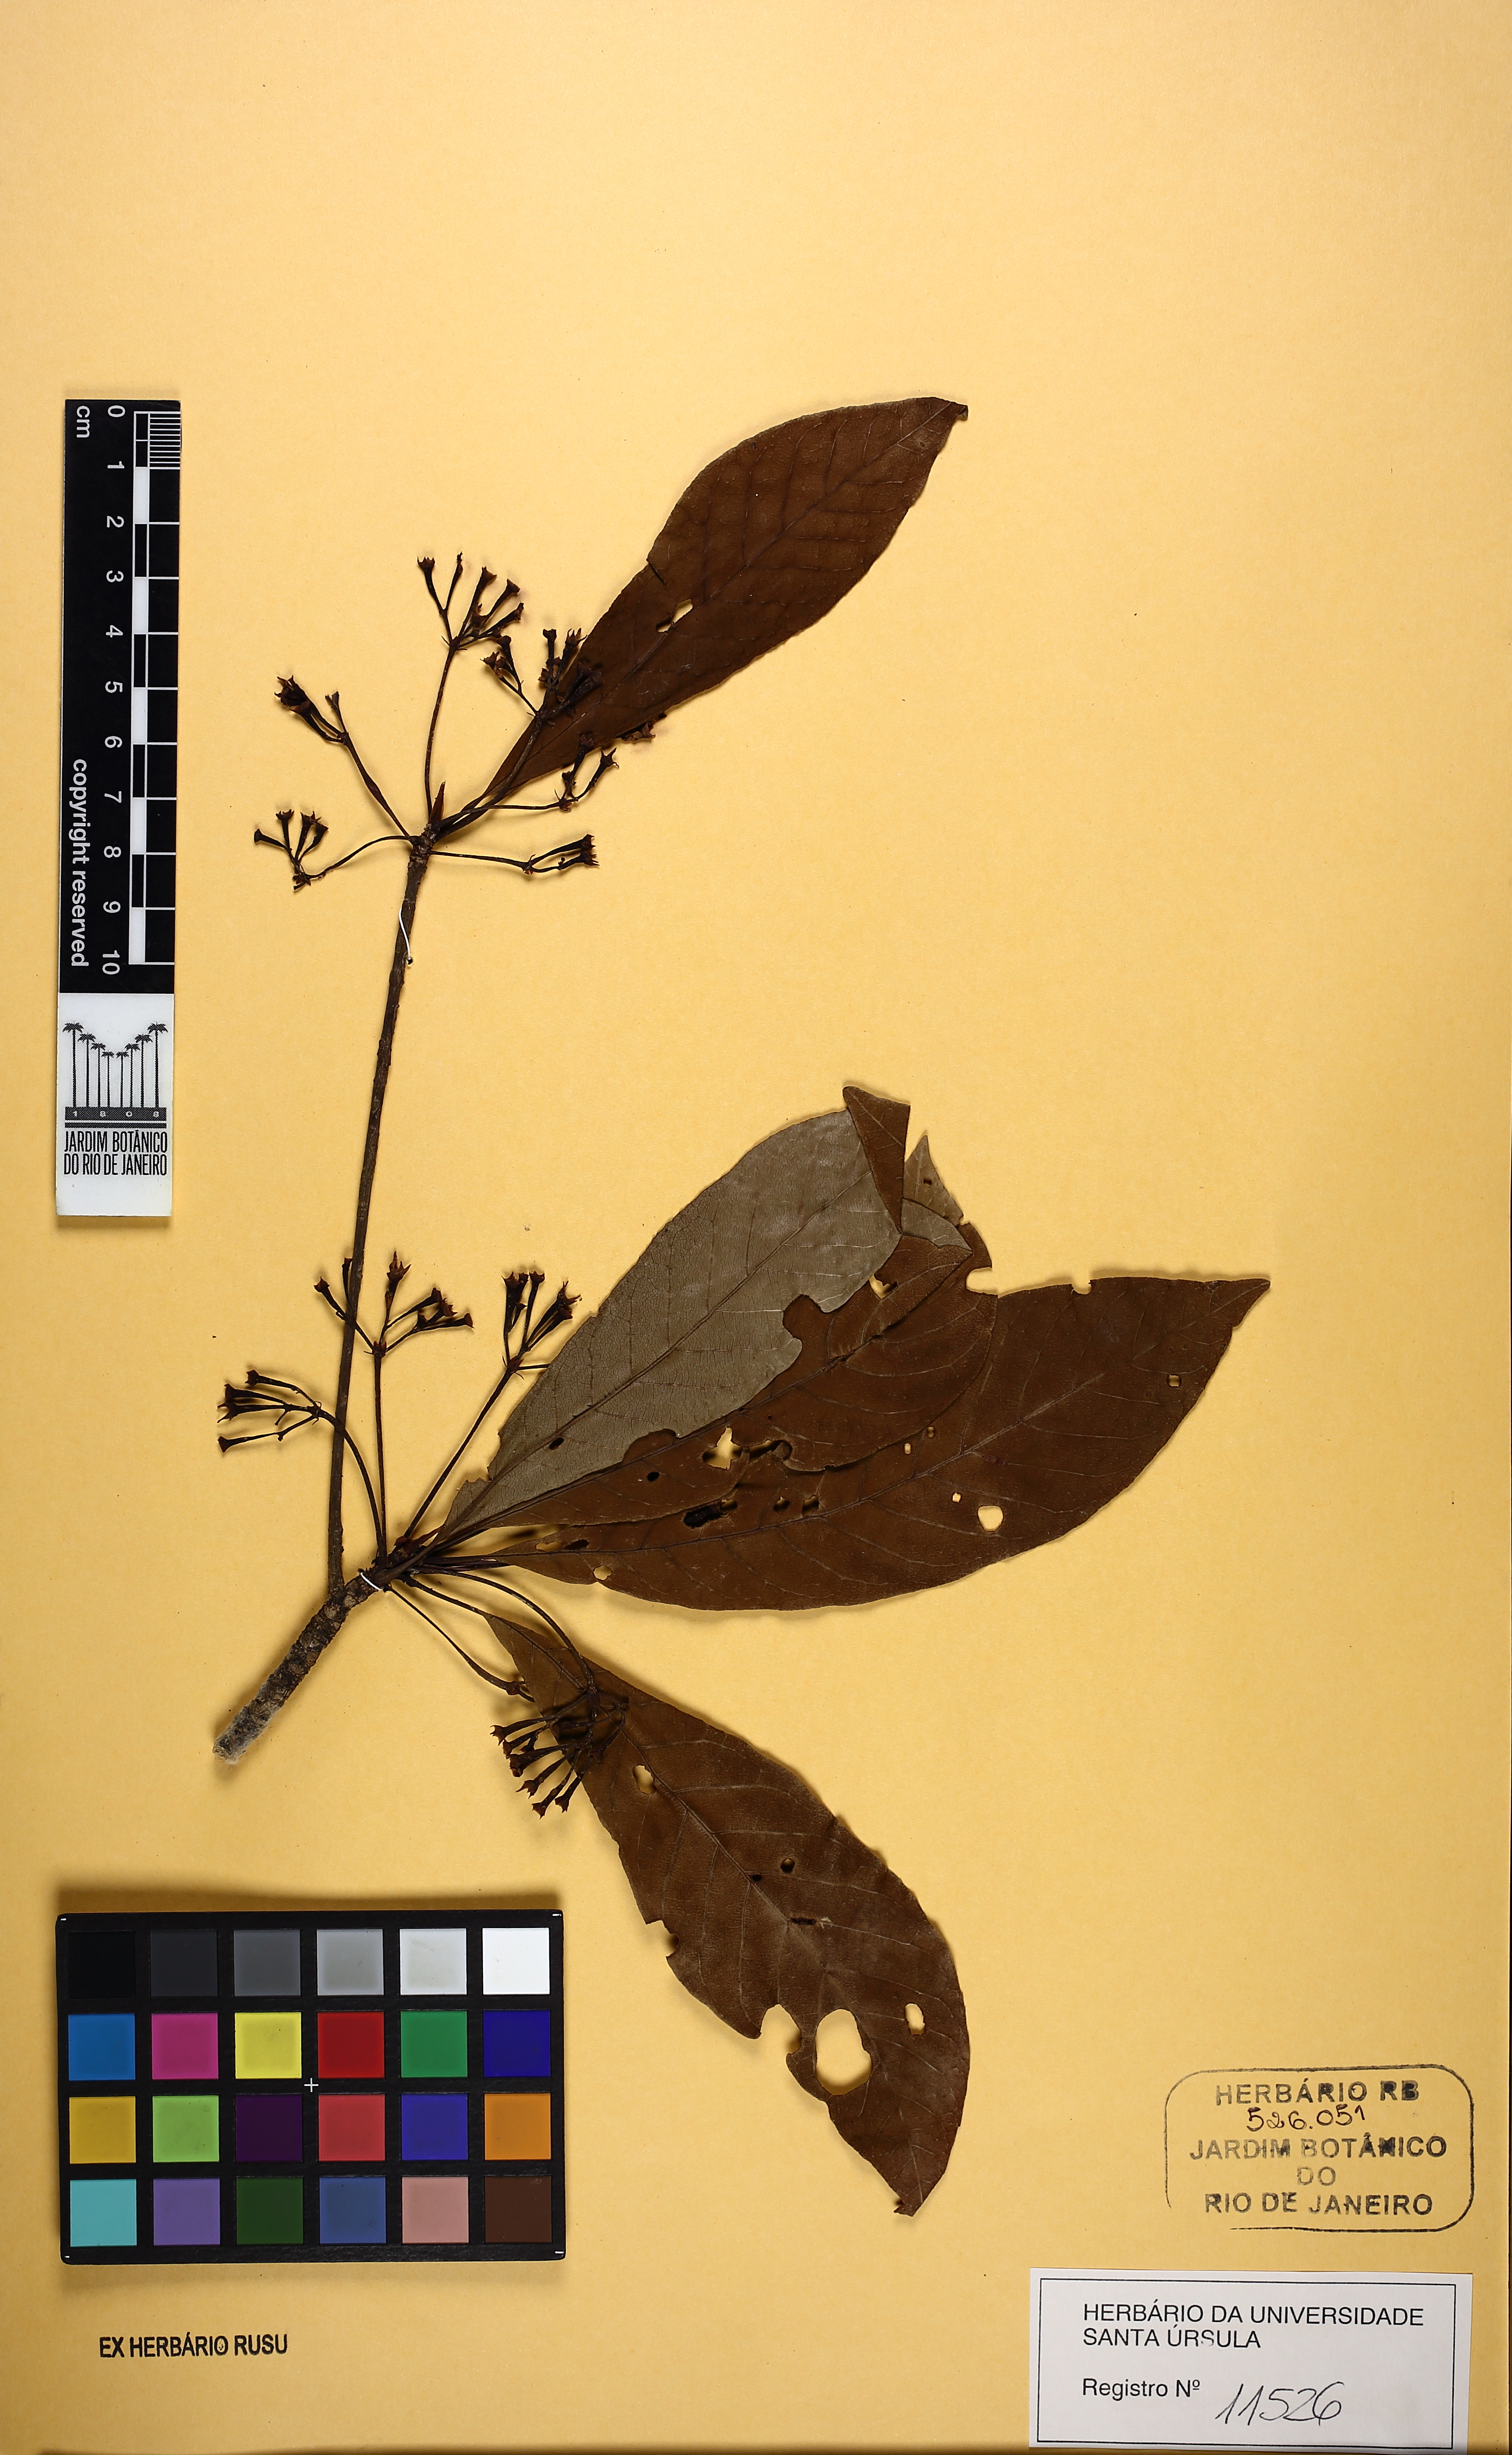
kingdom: Plantae
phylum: Tracheophyta
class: Magnoliopsida
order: Gentianales
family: Rubiaceae
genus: Simira
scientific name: Simira rubra
